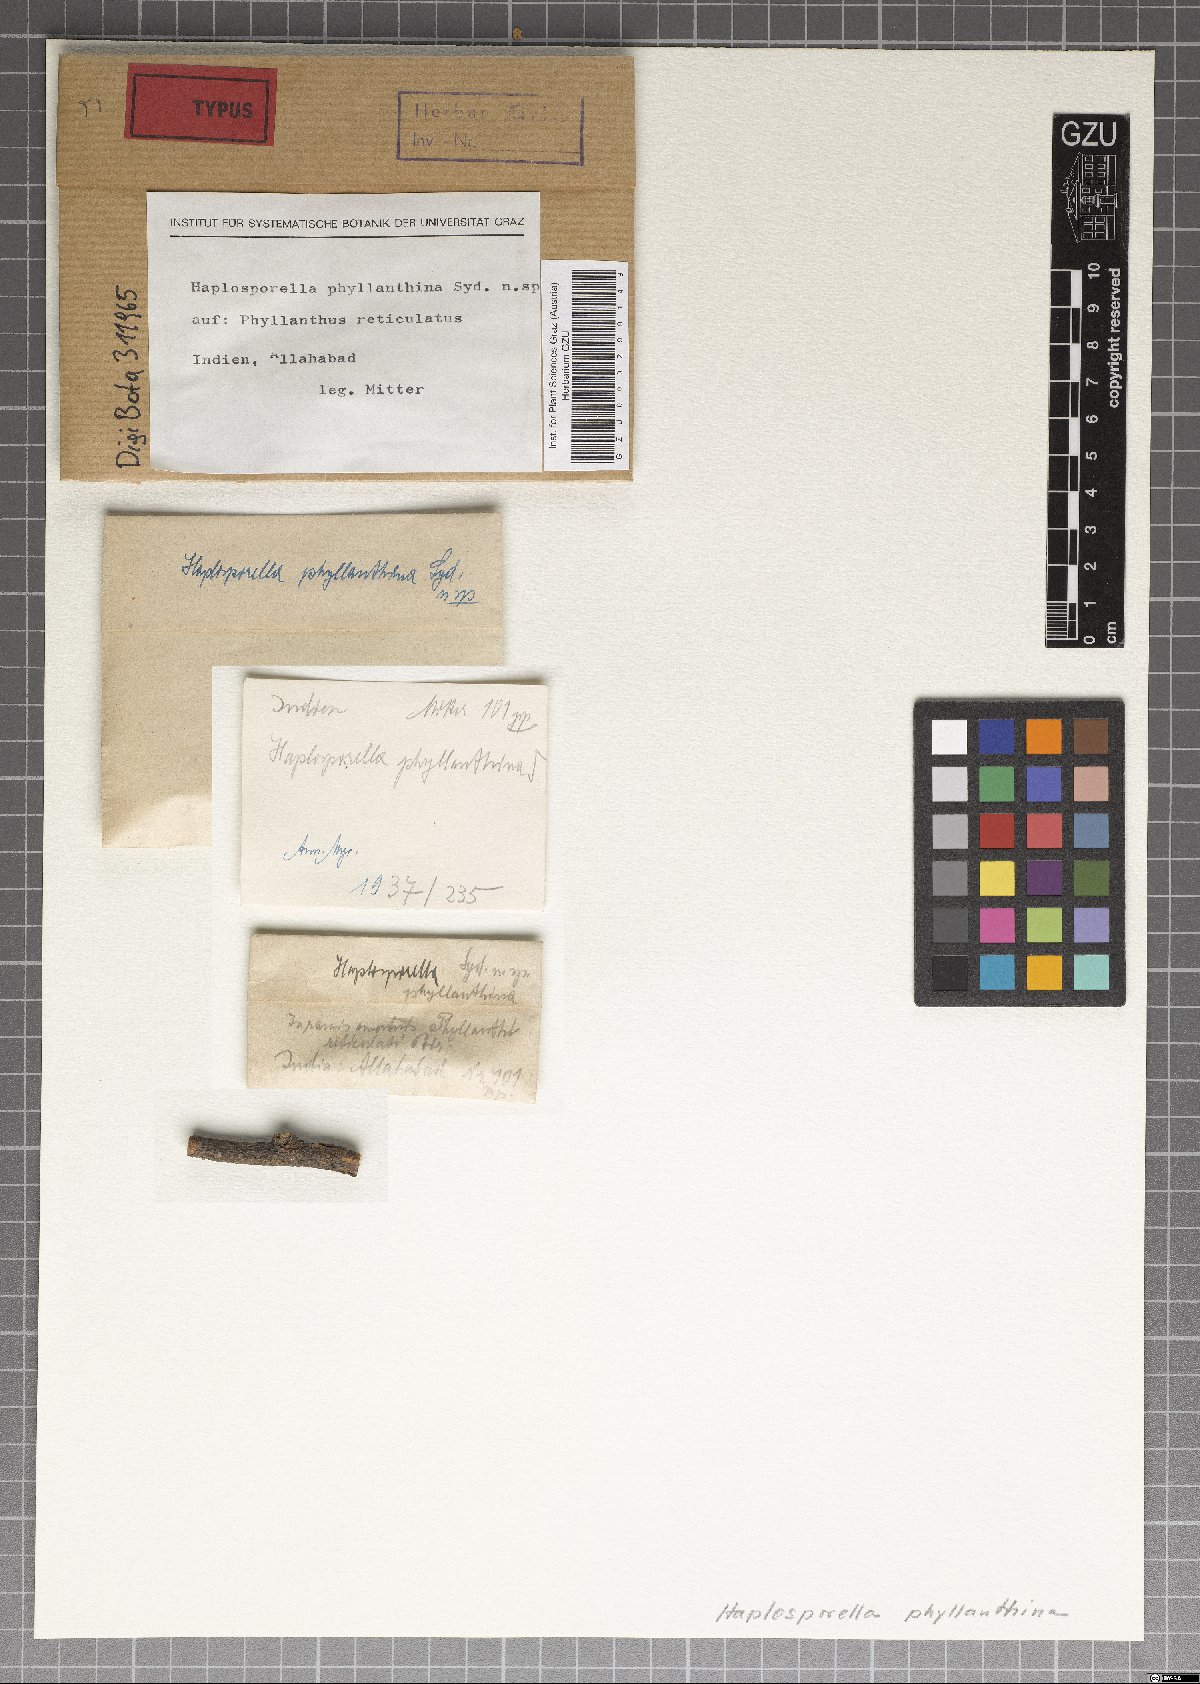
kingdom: Fungi
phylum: Ascomycota
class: Dothideomycetes
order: Botryosphaeriales
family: Aplosporellaceae
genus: Aplosporella
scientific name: Aplosporella phyllanthina
